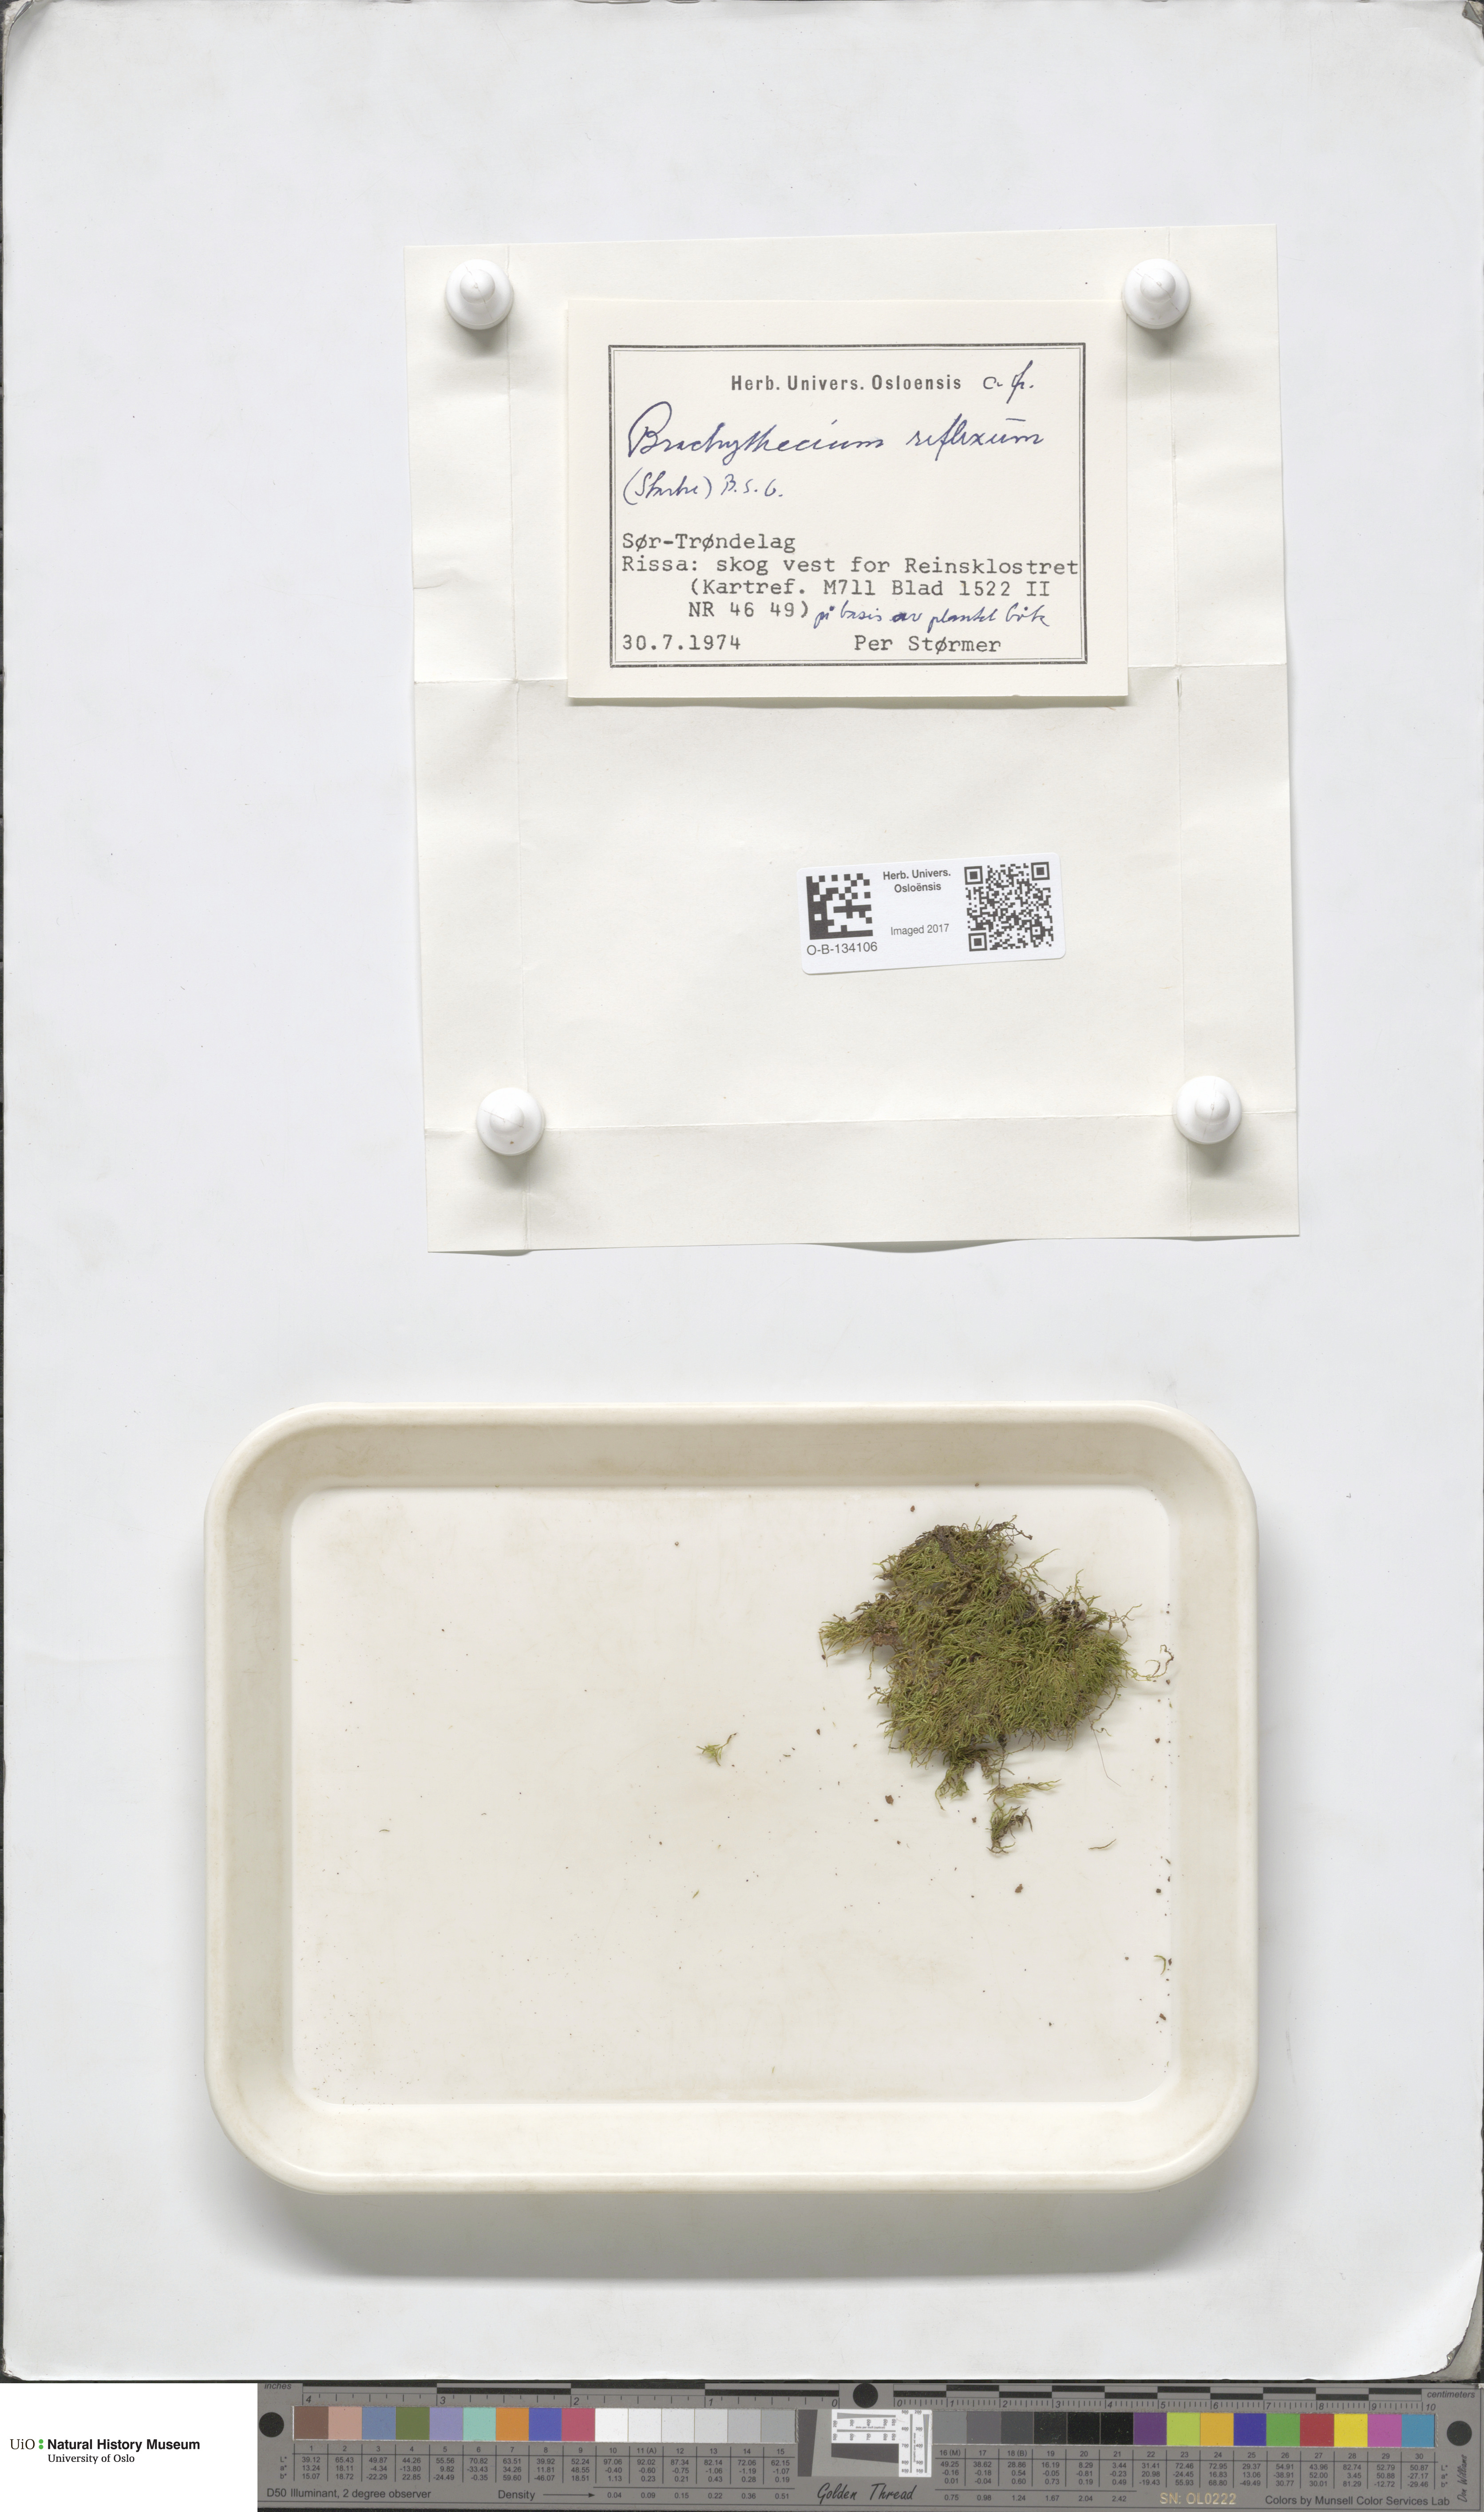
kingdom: Plantae
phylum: Bryophyta
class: Bryopsida
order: Hypnales
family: Brachytheciaceae
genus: Sciuro-hypnum
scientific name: Sciuro-hypnum reflexum
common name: Reflexed feather-moss
